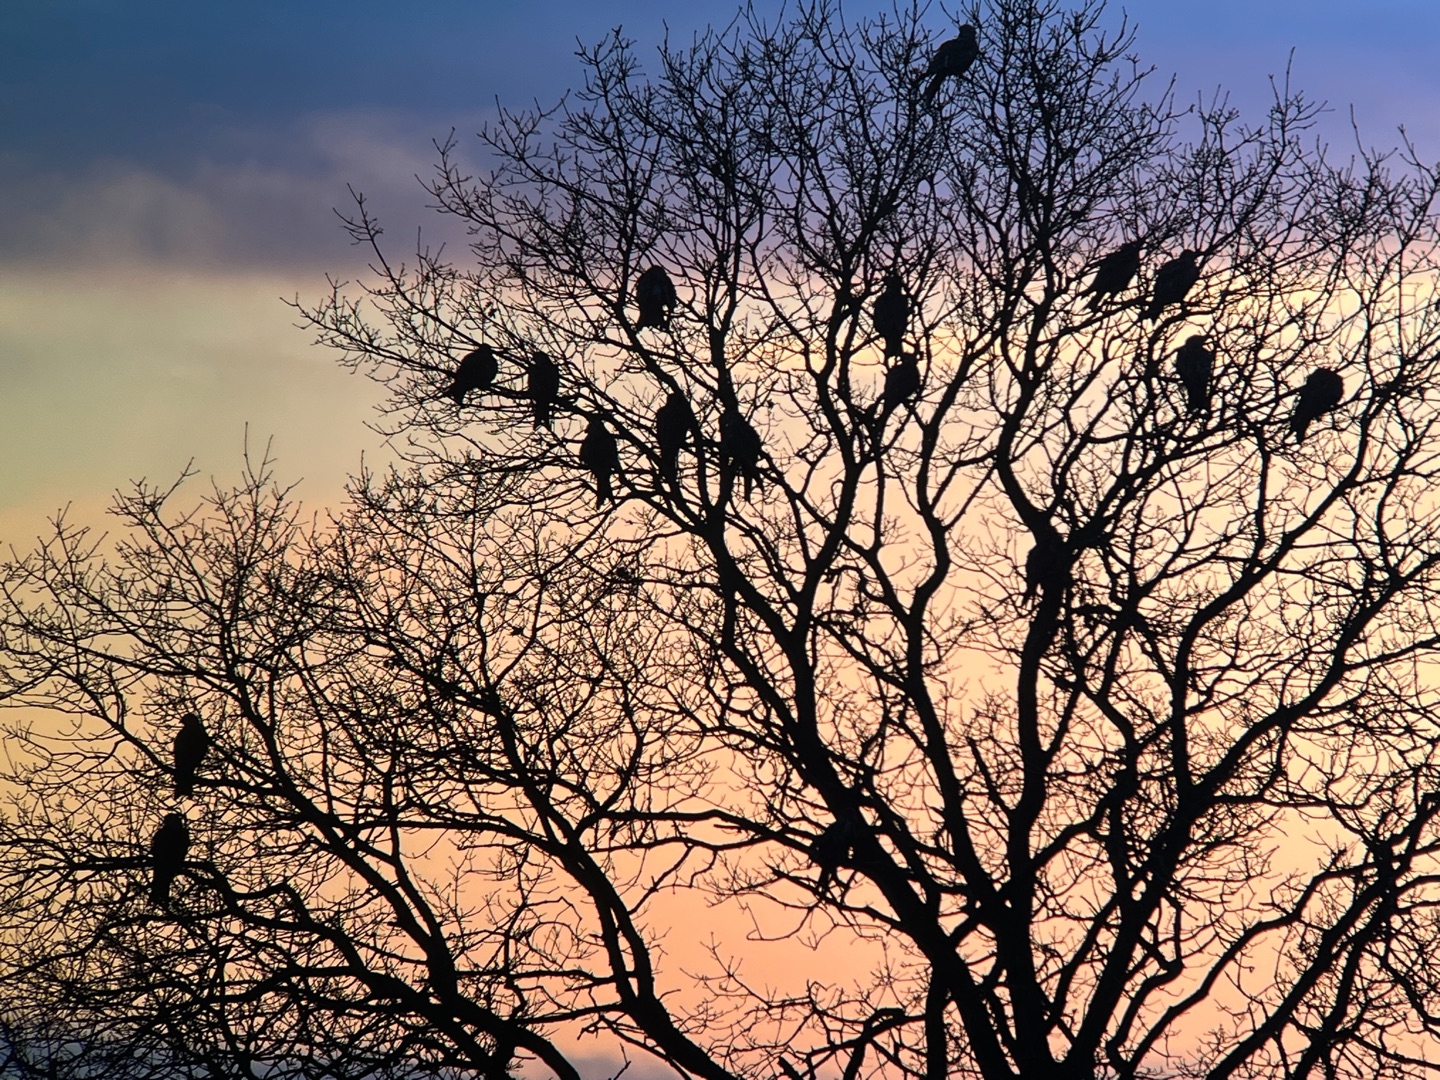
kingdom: Animalia
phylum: Chordata
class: Aves
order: Accipitriformes
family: Accipitridae
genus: Milvus
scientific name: Milvus milvus
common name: Rød glente
